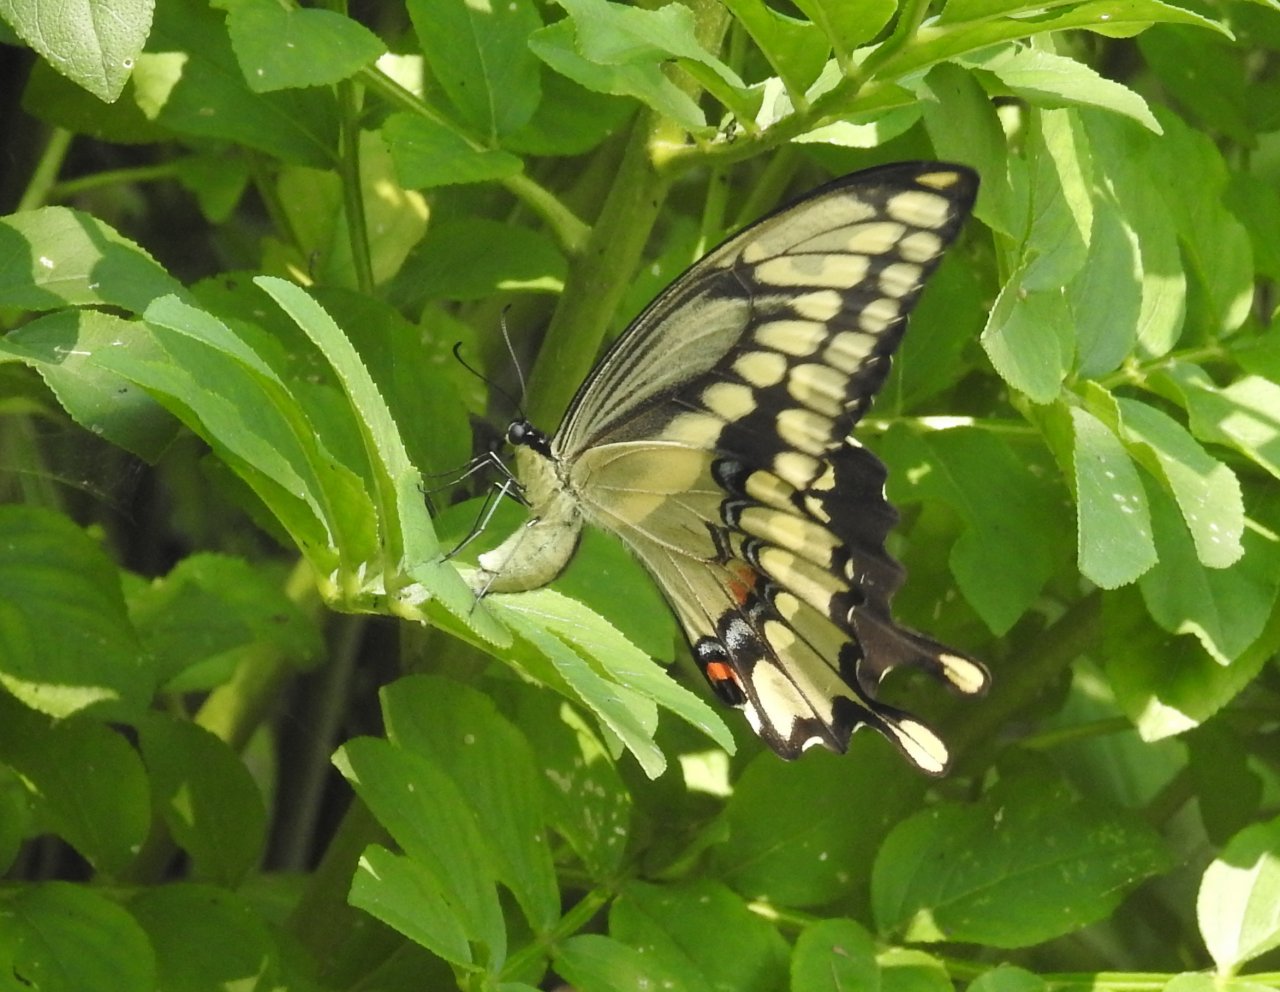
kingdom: Animalia
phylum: Arthropoda
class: Insecta
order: Lepidoptera
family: Papilionidae
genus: Papilio
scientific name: Papilio cresphontes
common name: Eastern Giant Swallowtail
